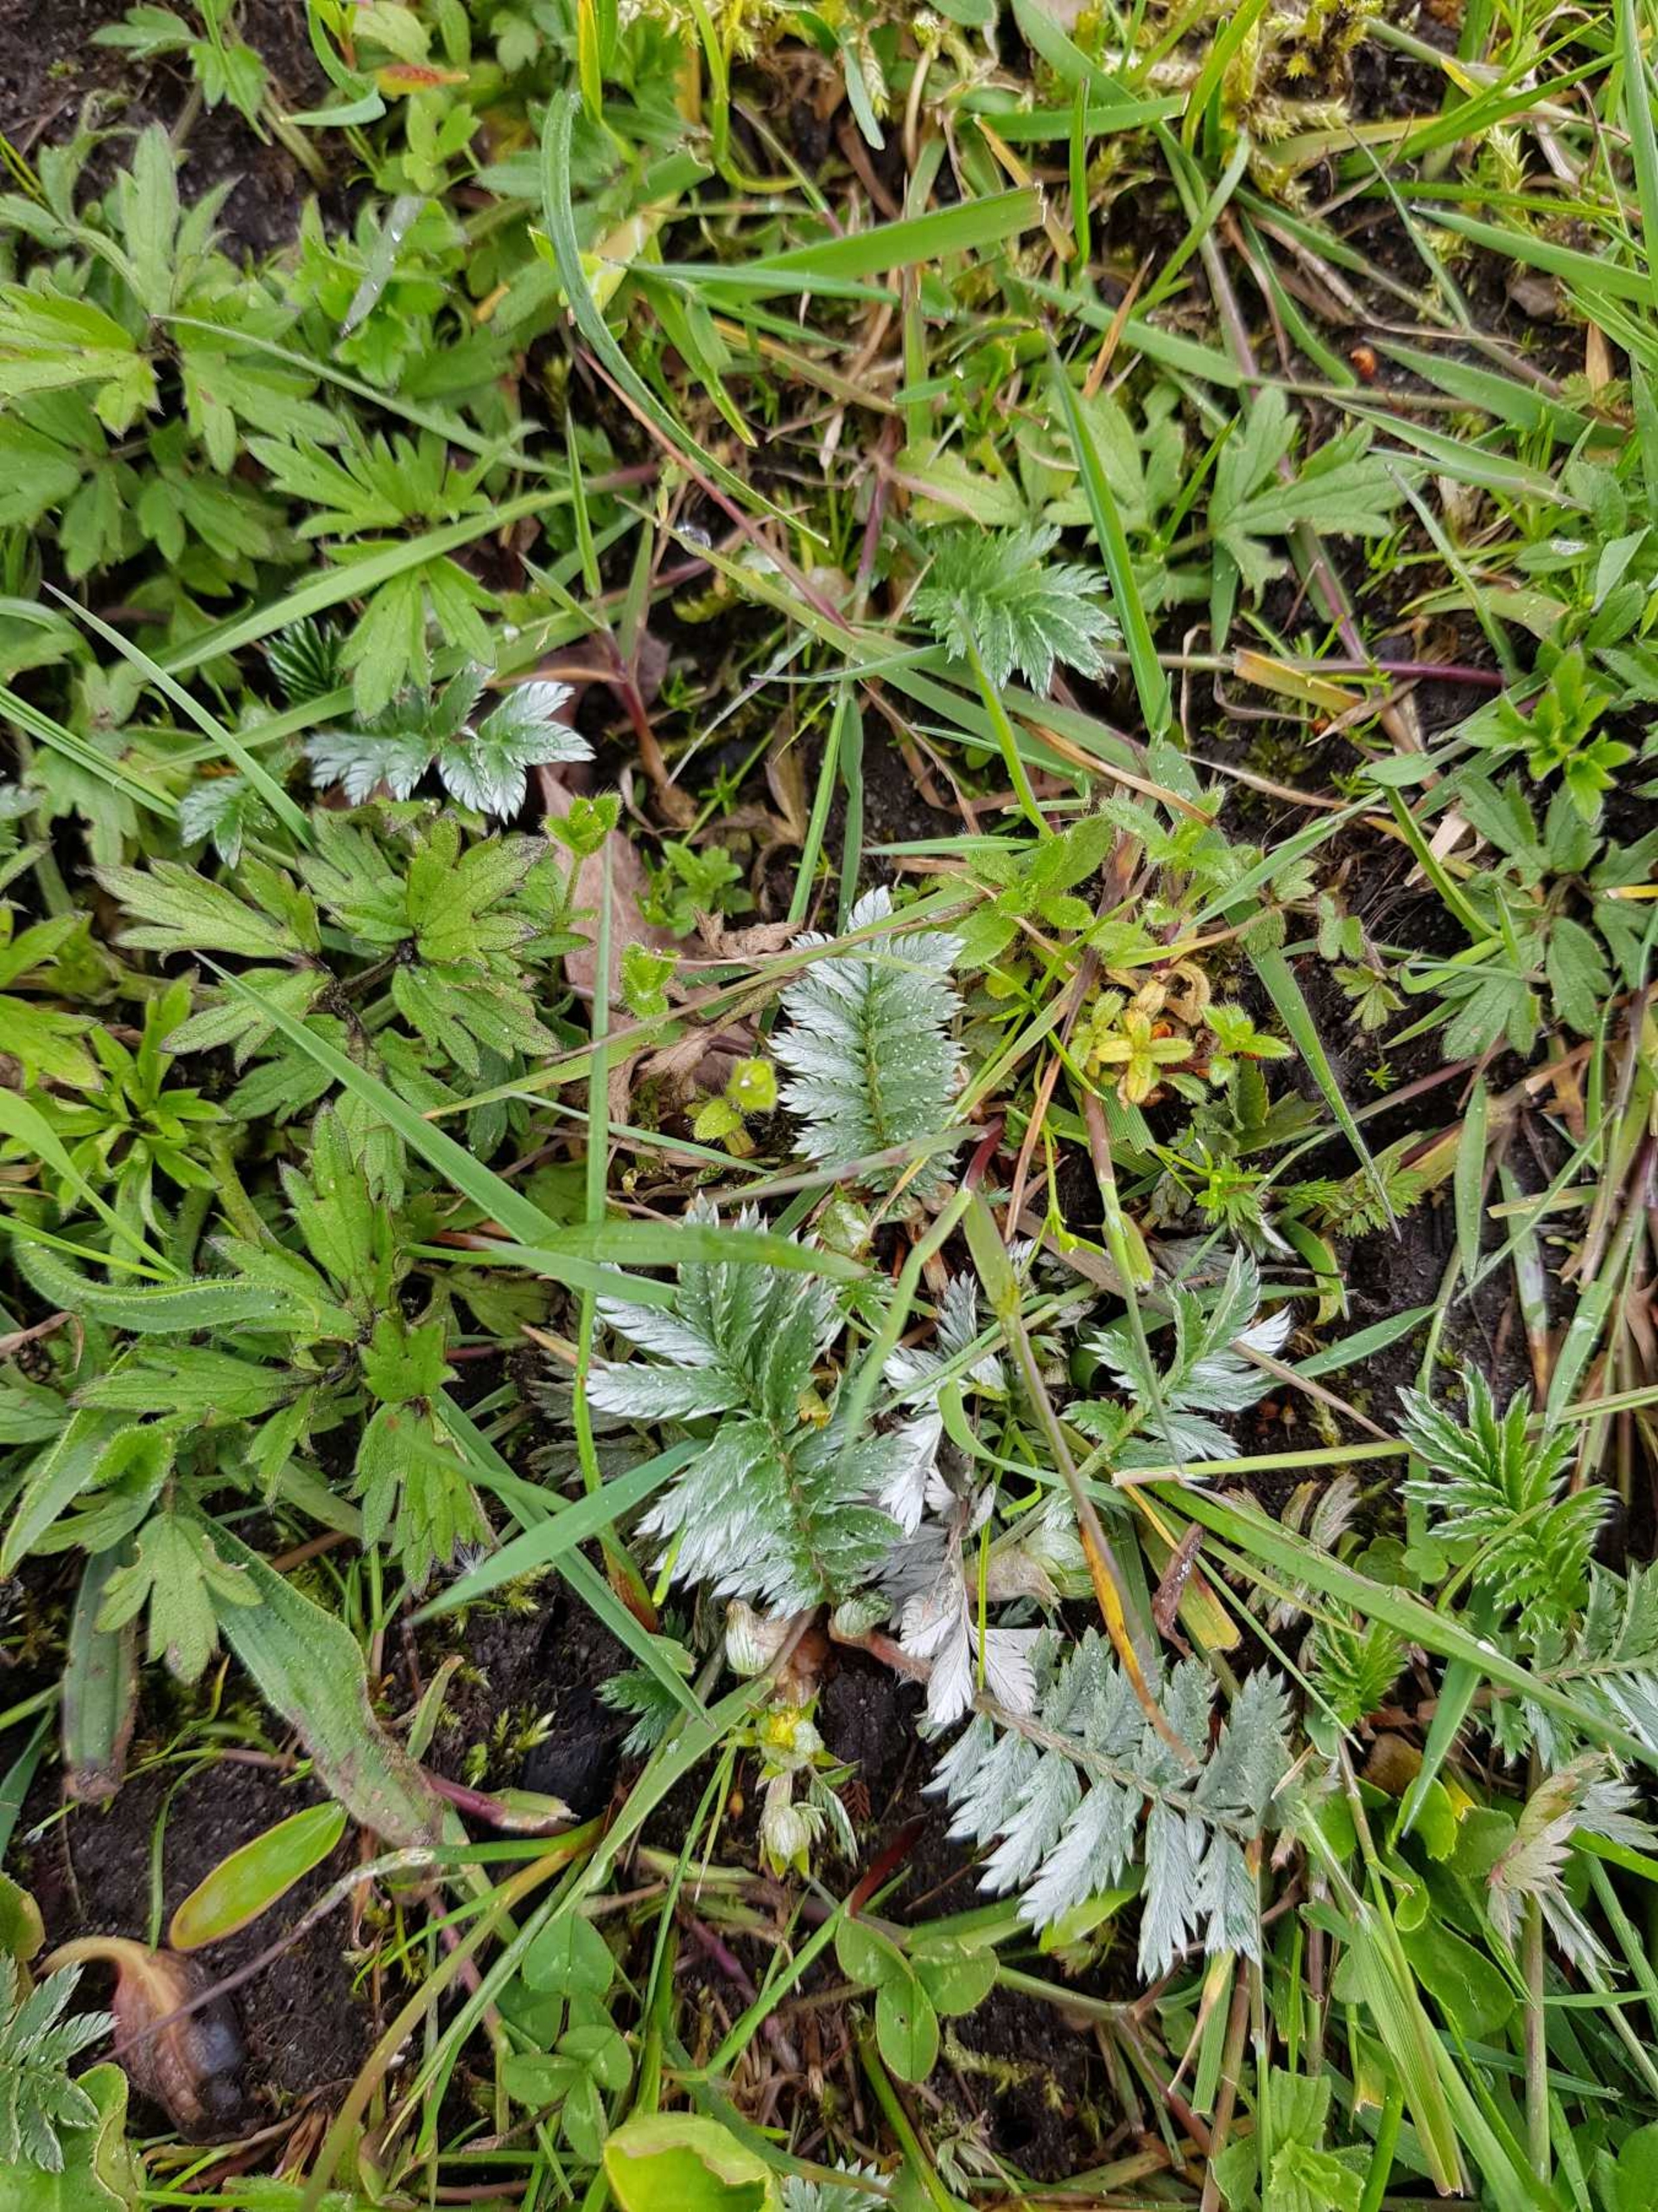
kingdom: Plantae
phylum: Tracheophyta
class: Magnoliopsida
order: Rosales
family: Rosaceae
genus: Argentina
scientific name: Argentina anserina
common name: Gåsepotentil
